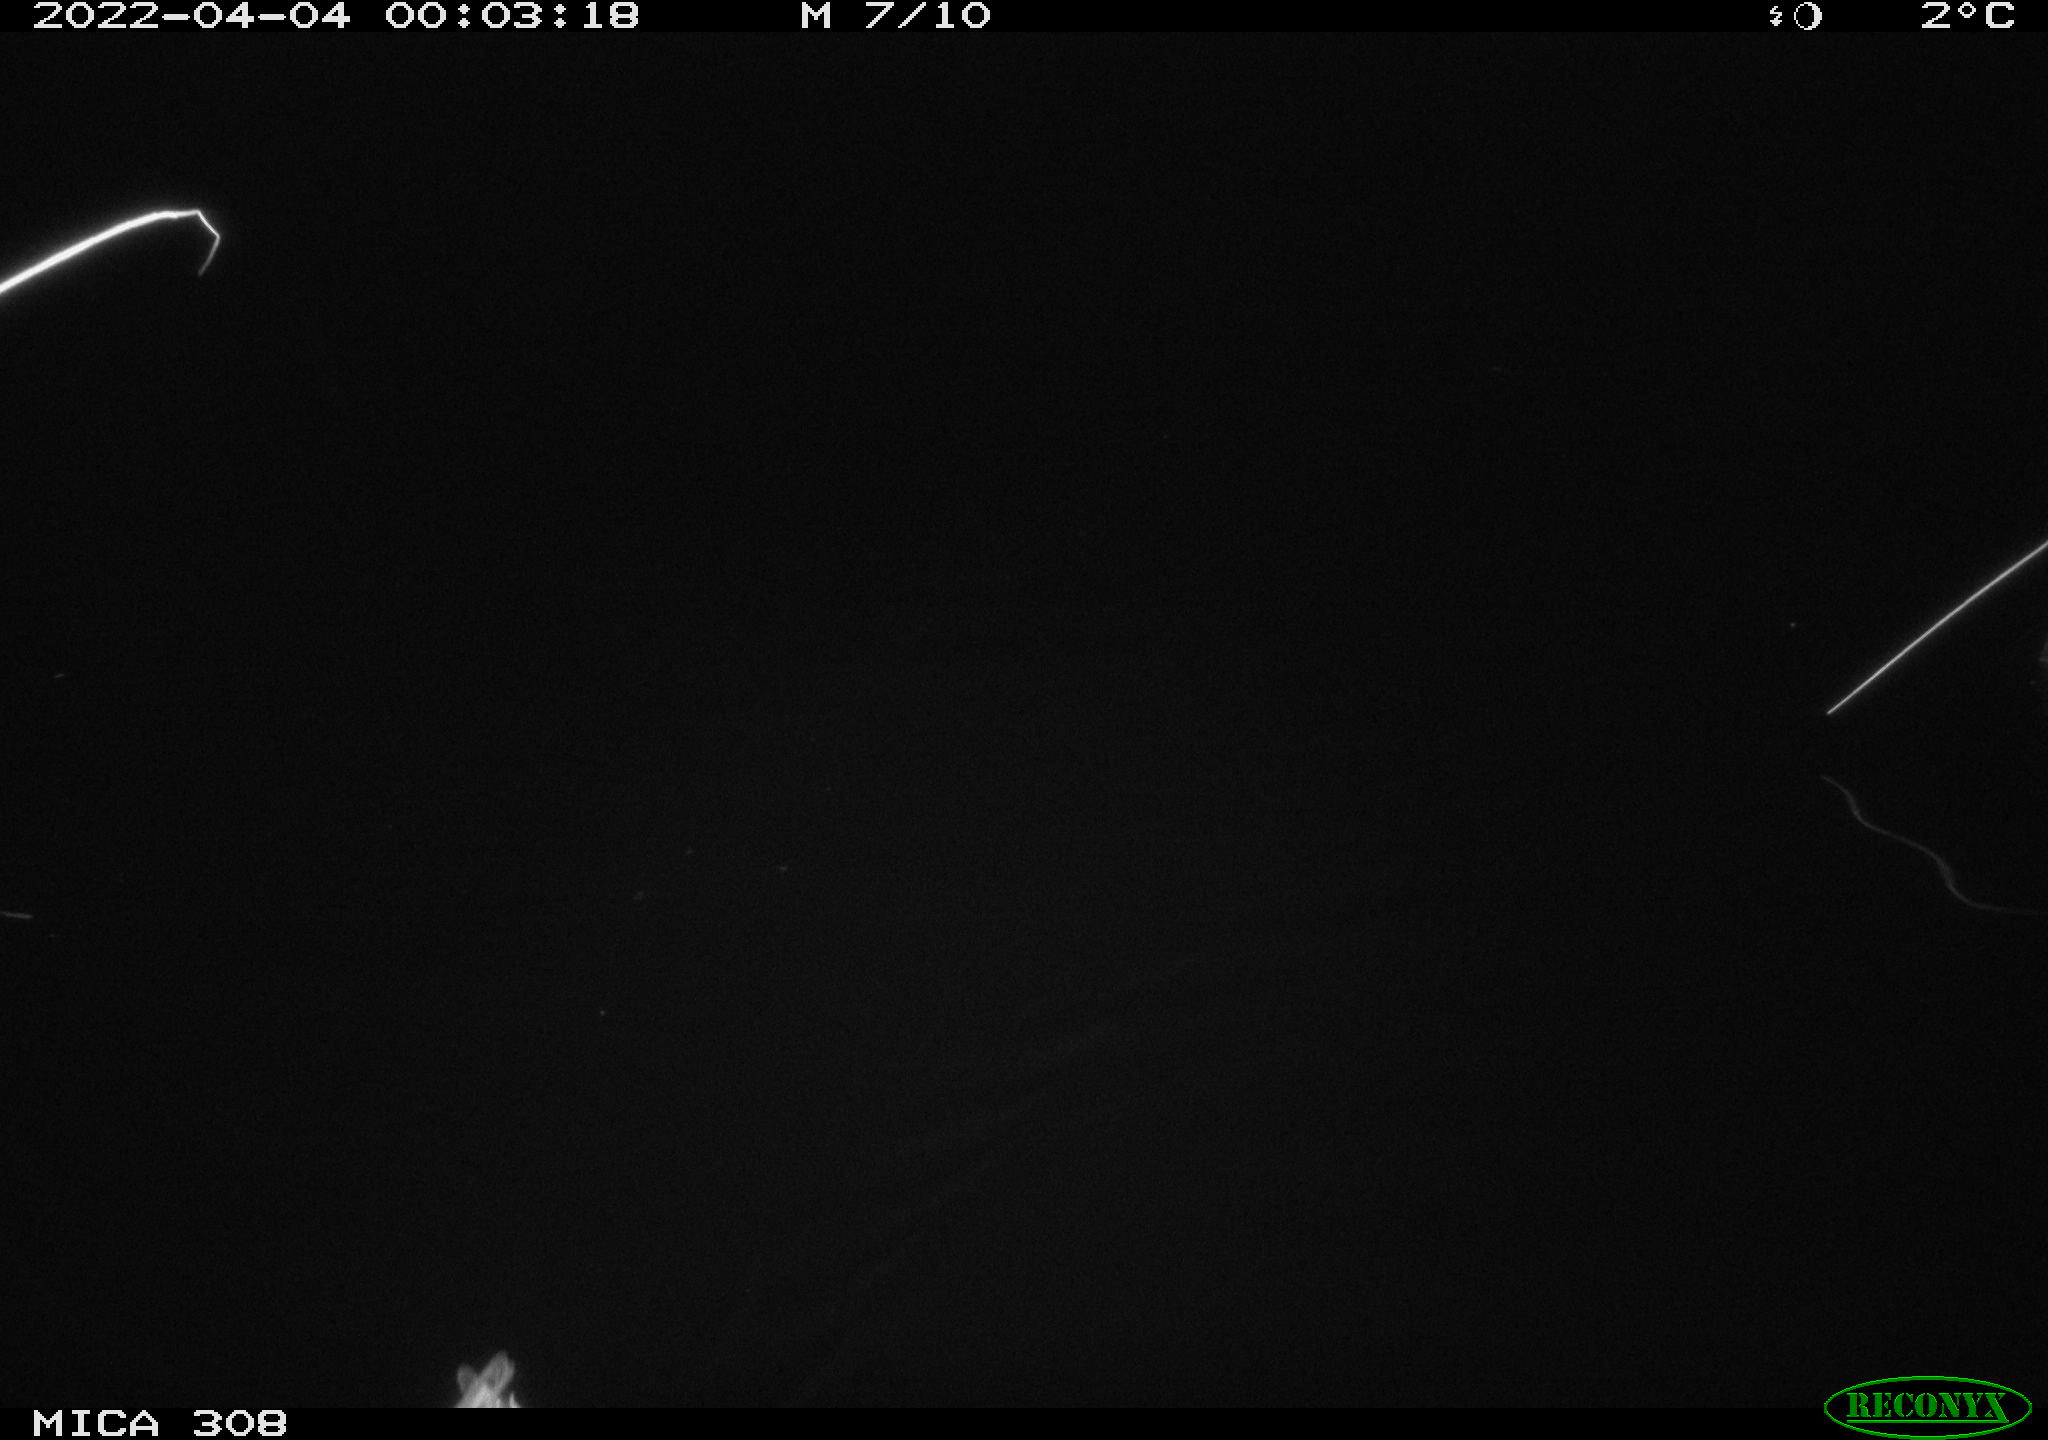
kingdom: Animalia
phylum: Chordata
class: Aves
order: Anseriformes
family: Anatidae
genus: Anas
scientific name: Anas platyrhynchos
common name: Mallard
